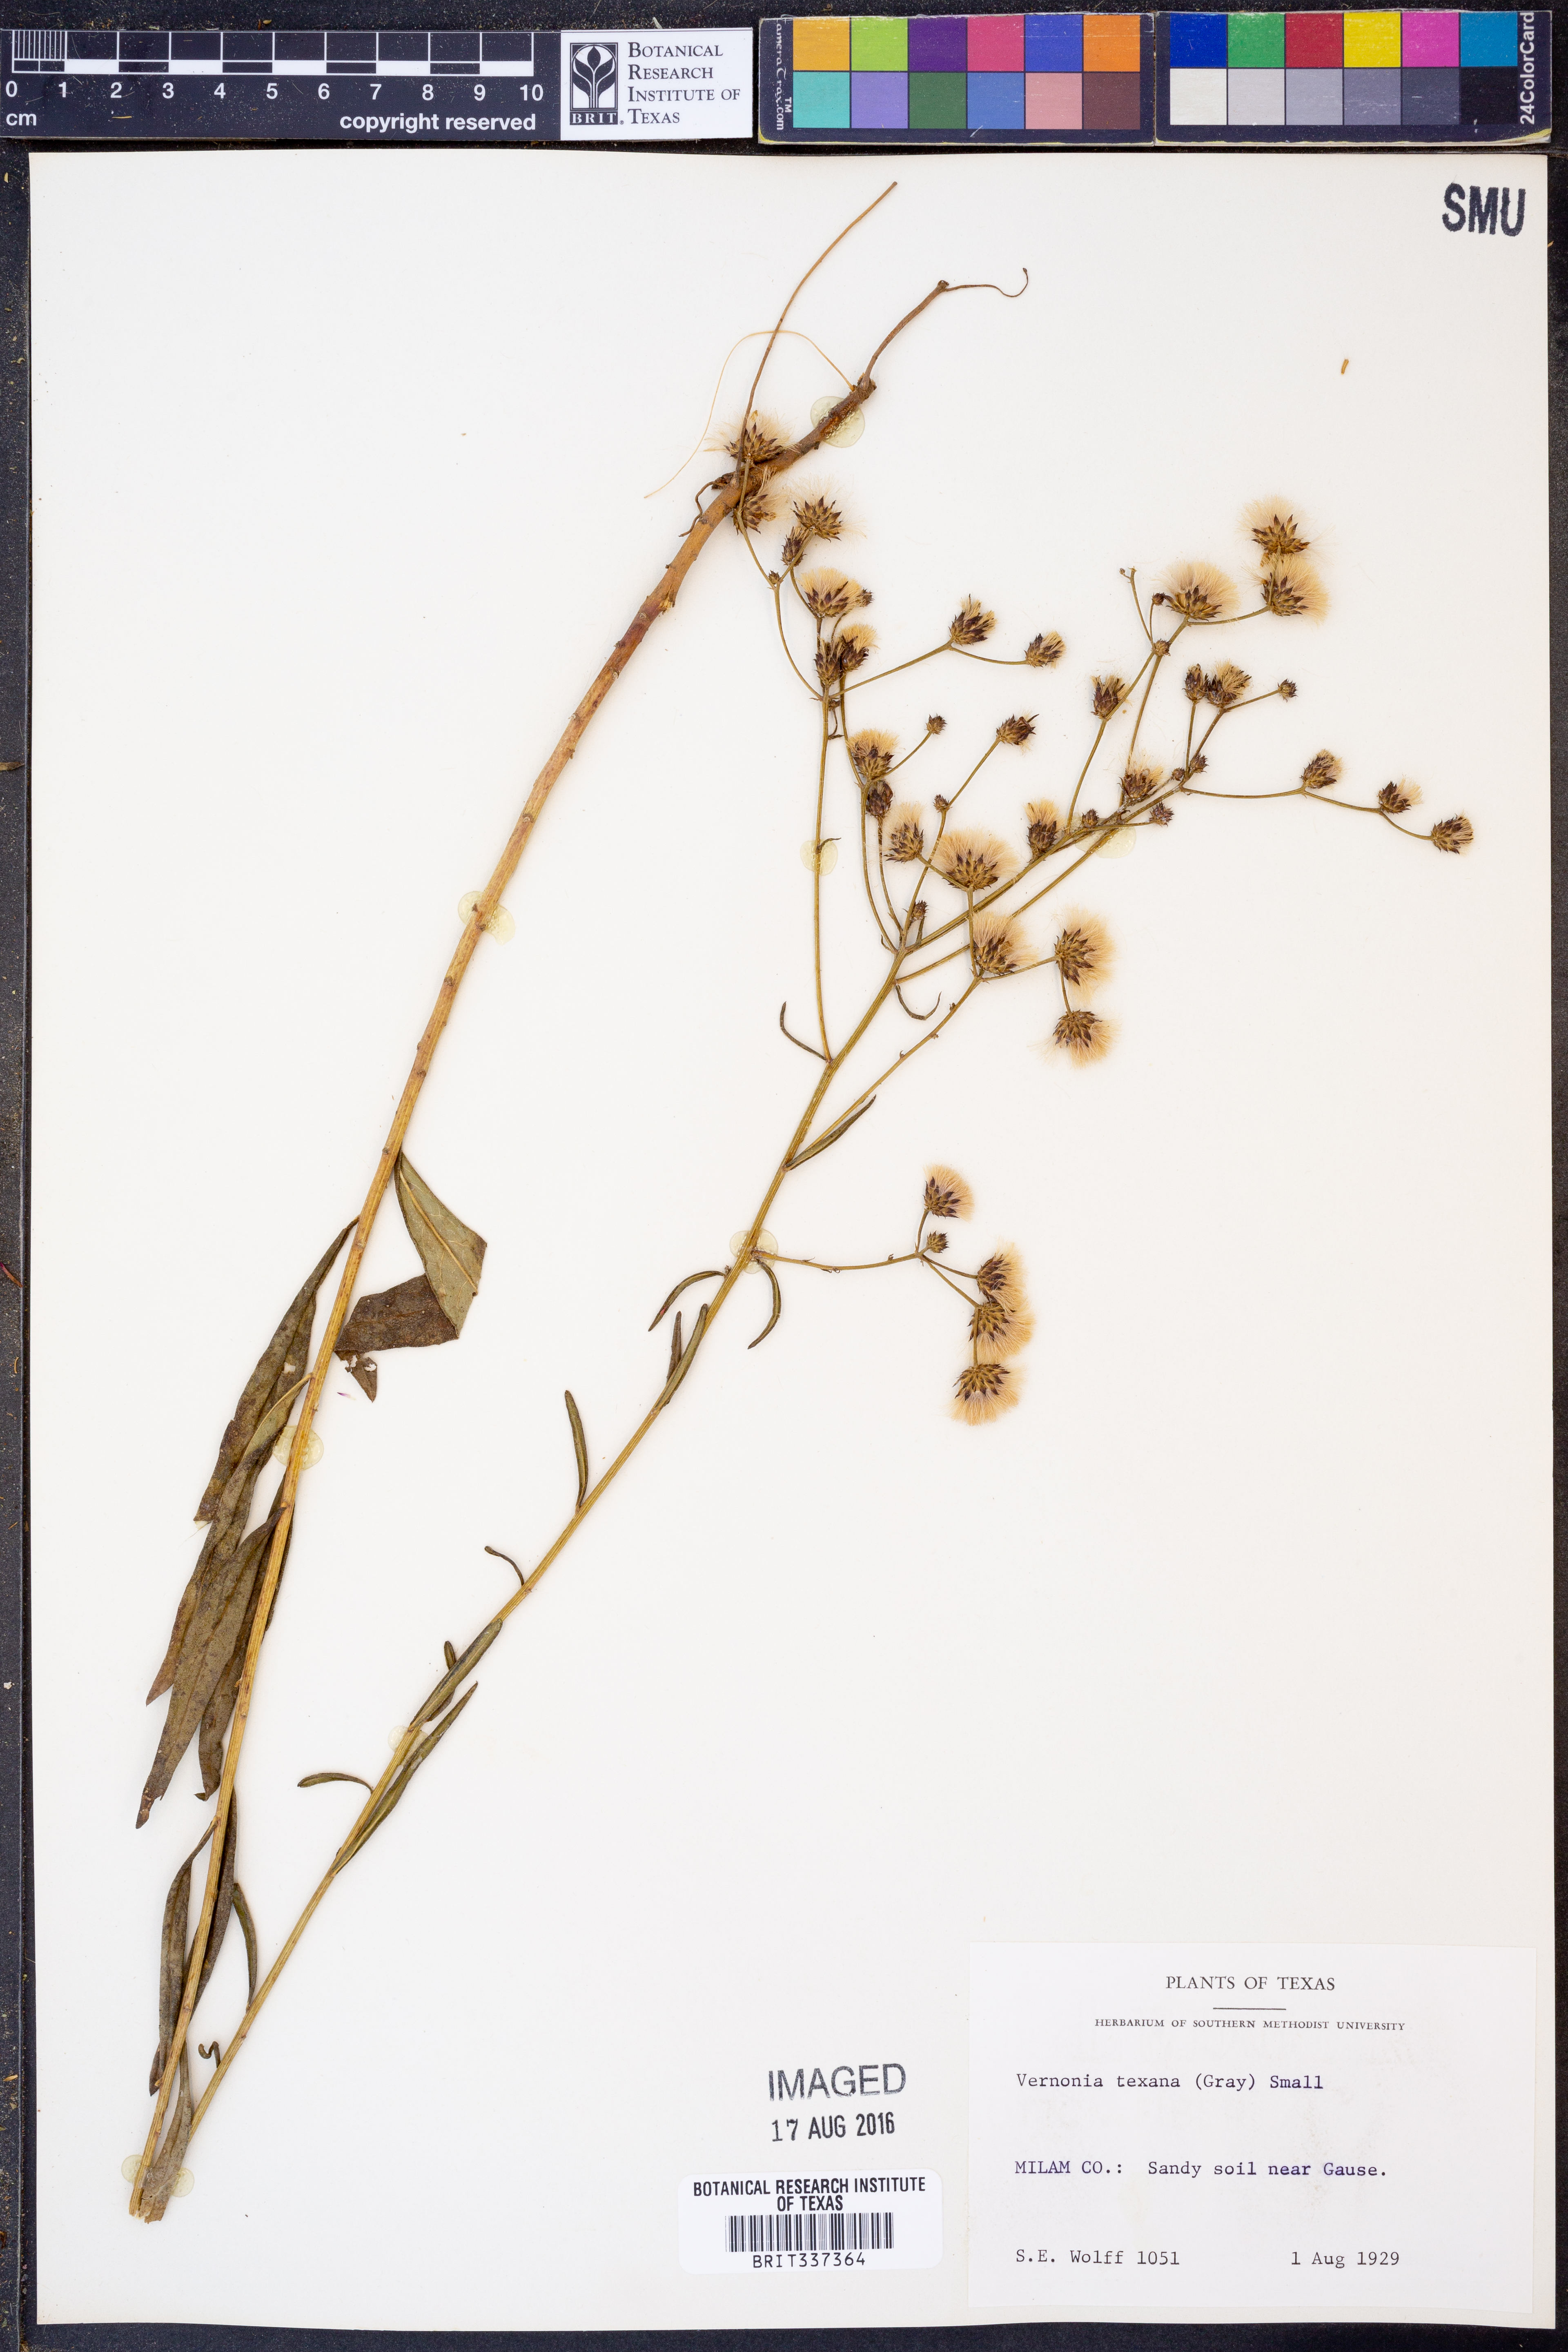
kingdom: Plantae
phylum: Tracheophyta
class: Magnoliopsida
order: Asterales
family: Asteraceae
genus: Vernonia
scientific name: Vernonia texana
